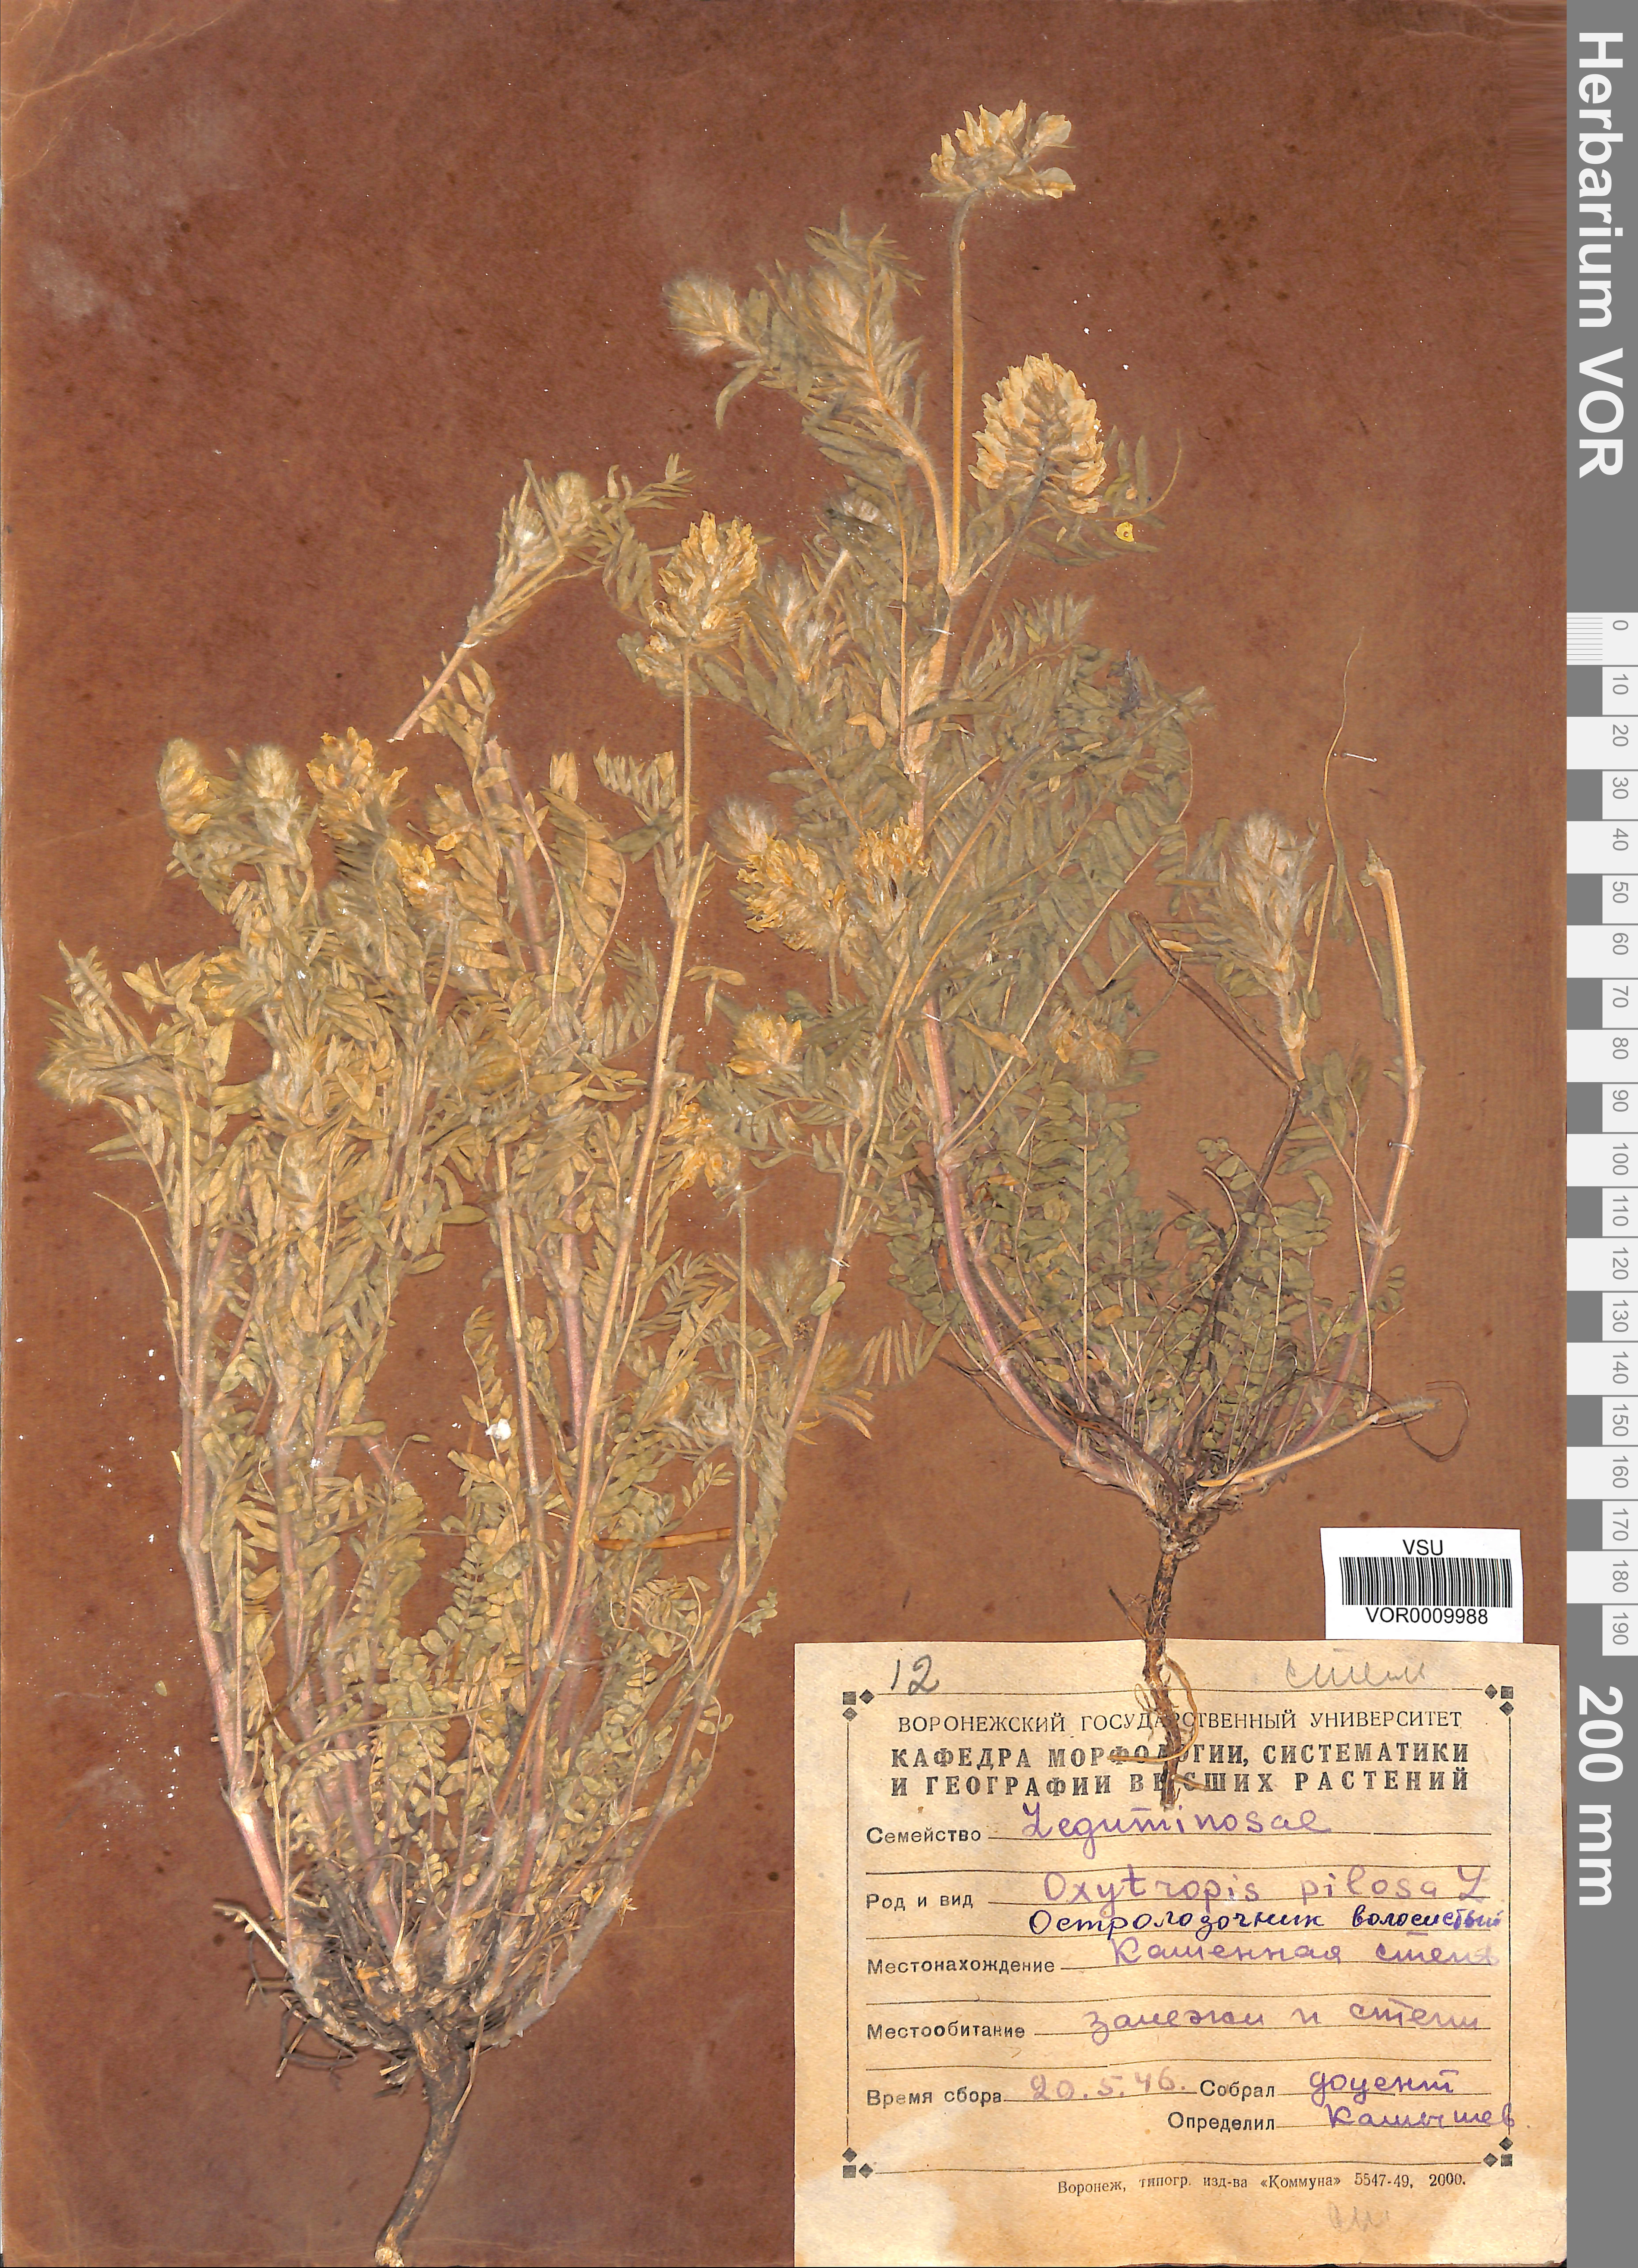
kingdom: Plantae
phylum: Tracheophyta
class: Magnoliopsida
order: Fabales
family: Fabaceae
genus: Oxytropis
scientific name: Oxytropis pilosa
